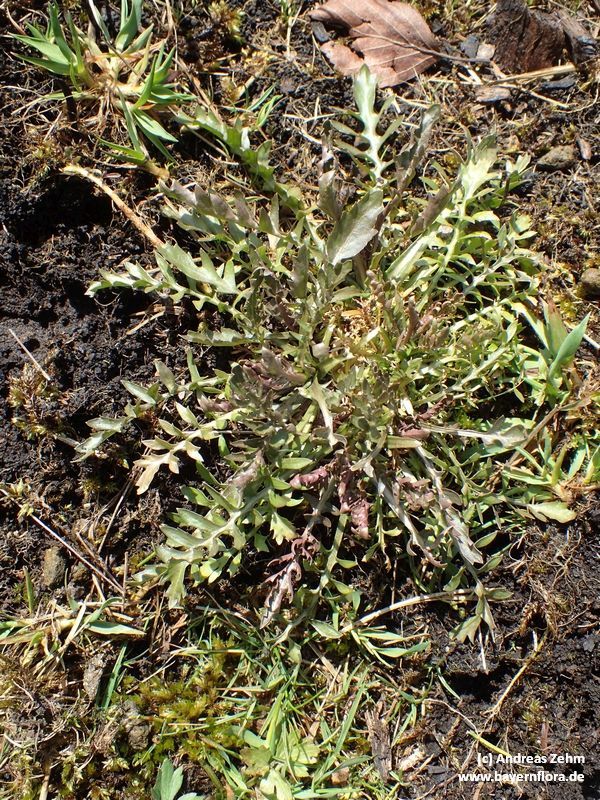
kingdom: Plantae
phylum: Tracheophyta
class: Magnoliopsida
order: Brassicales
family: Brassicaceae
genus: Capsella
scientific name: Capsella bursa-pastoris
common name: Shepherd's purse
